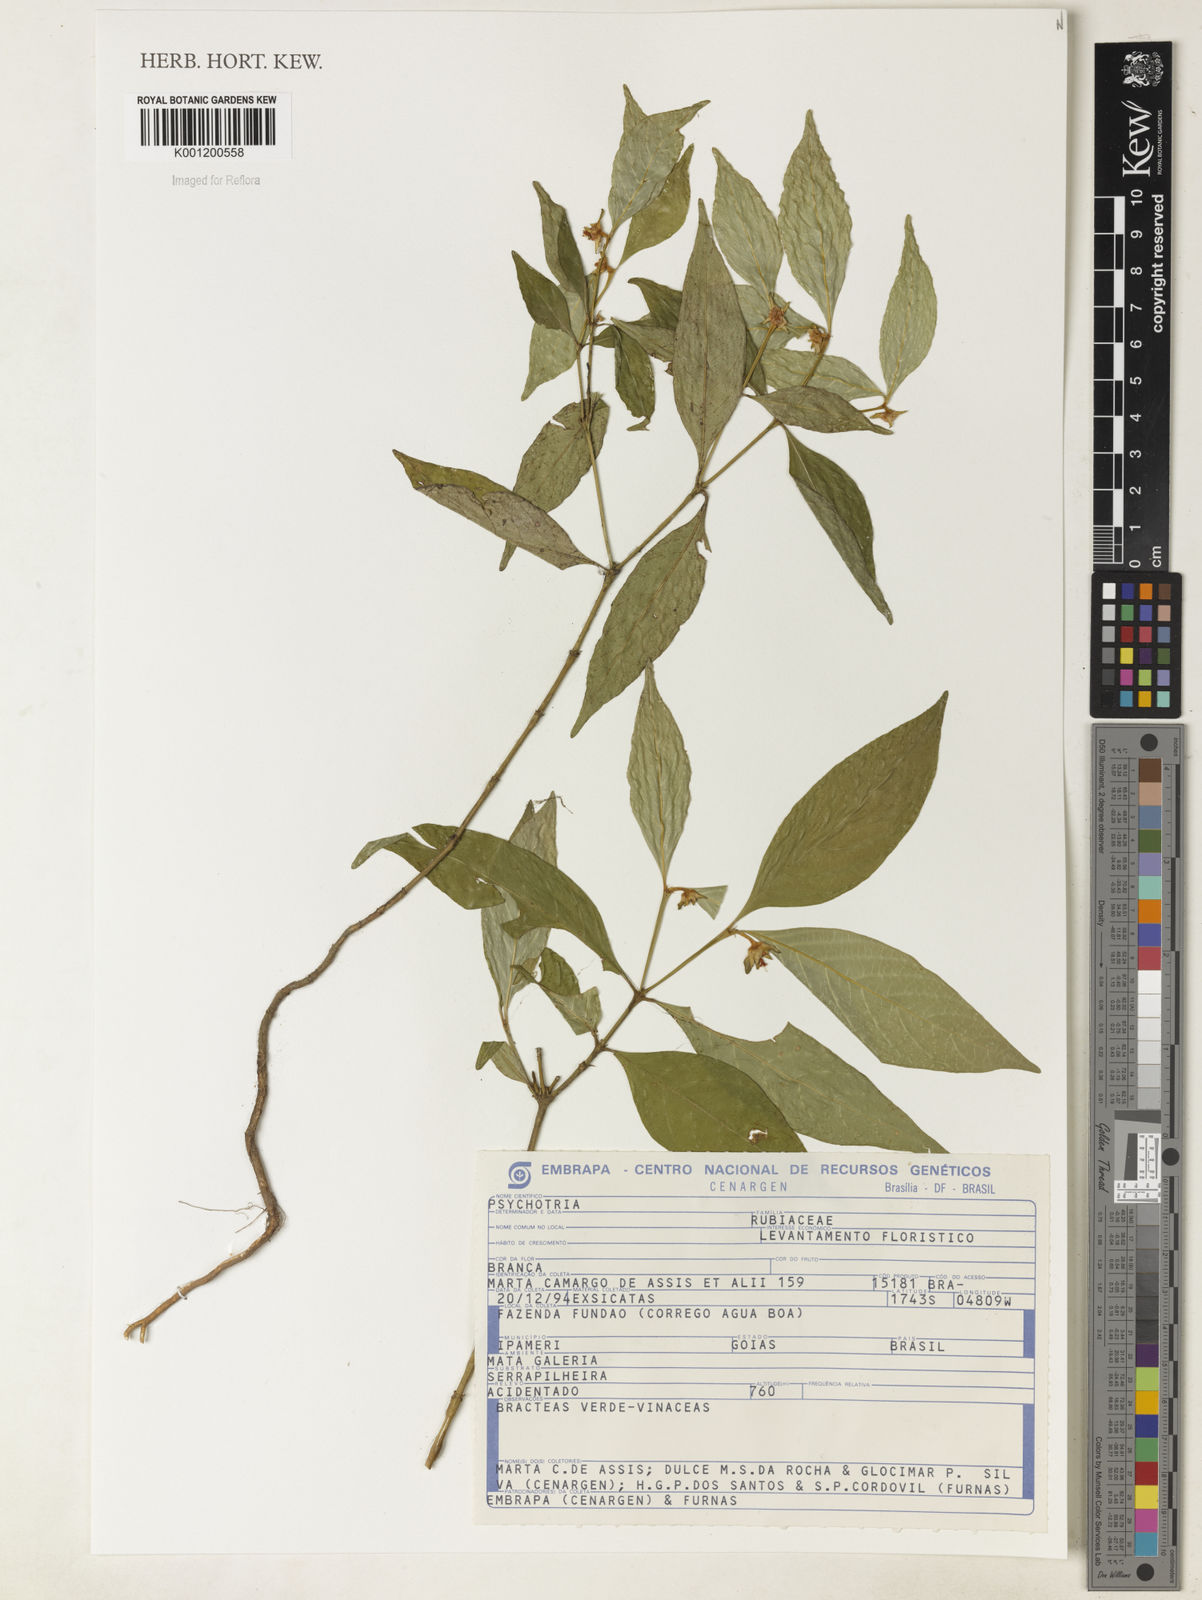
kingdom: Plantae
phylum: Tracheophyta
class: Magnoliopsida
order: Gentianales
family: Rubiaceae
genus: Psychotria
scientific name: Psychotria
